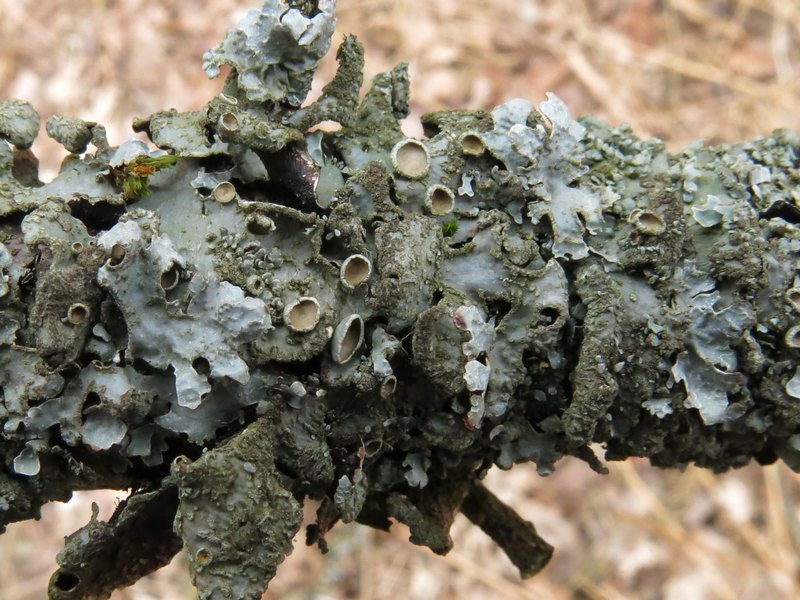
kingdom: Fungi
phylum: Ascomycota
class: Lecanoromycetes
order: Lecanorales
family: Parmeliaceae
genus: Parmelia
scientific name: Parmelia sulcata
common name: rynket skållav
